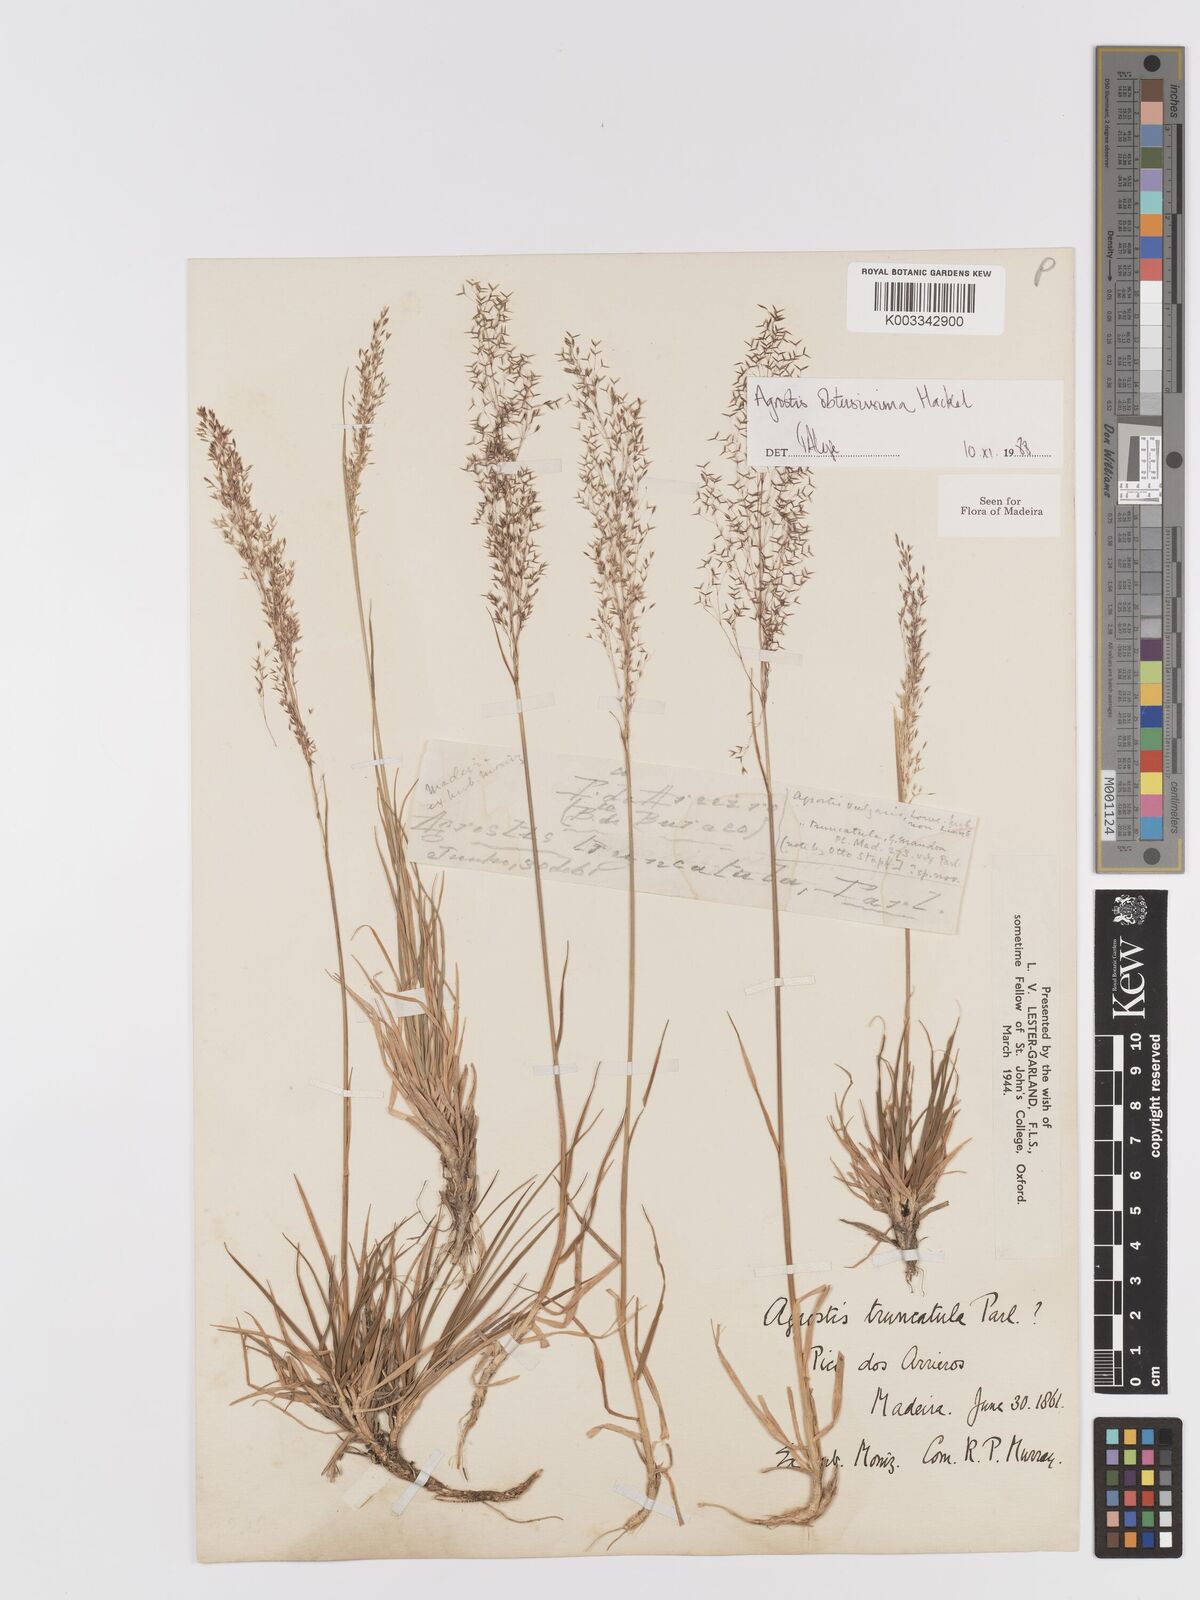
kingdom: Plantae
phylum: Tracheophyta
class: Liliopsida
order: Poales
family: Poaceae
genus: Agrostis
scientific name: Agrostis reuteri
